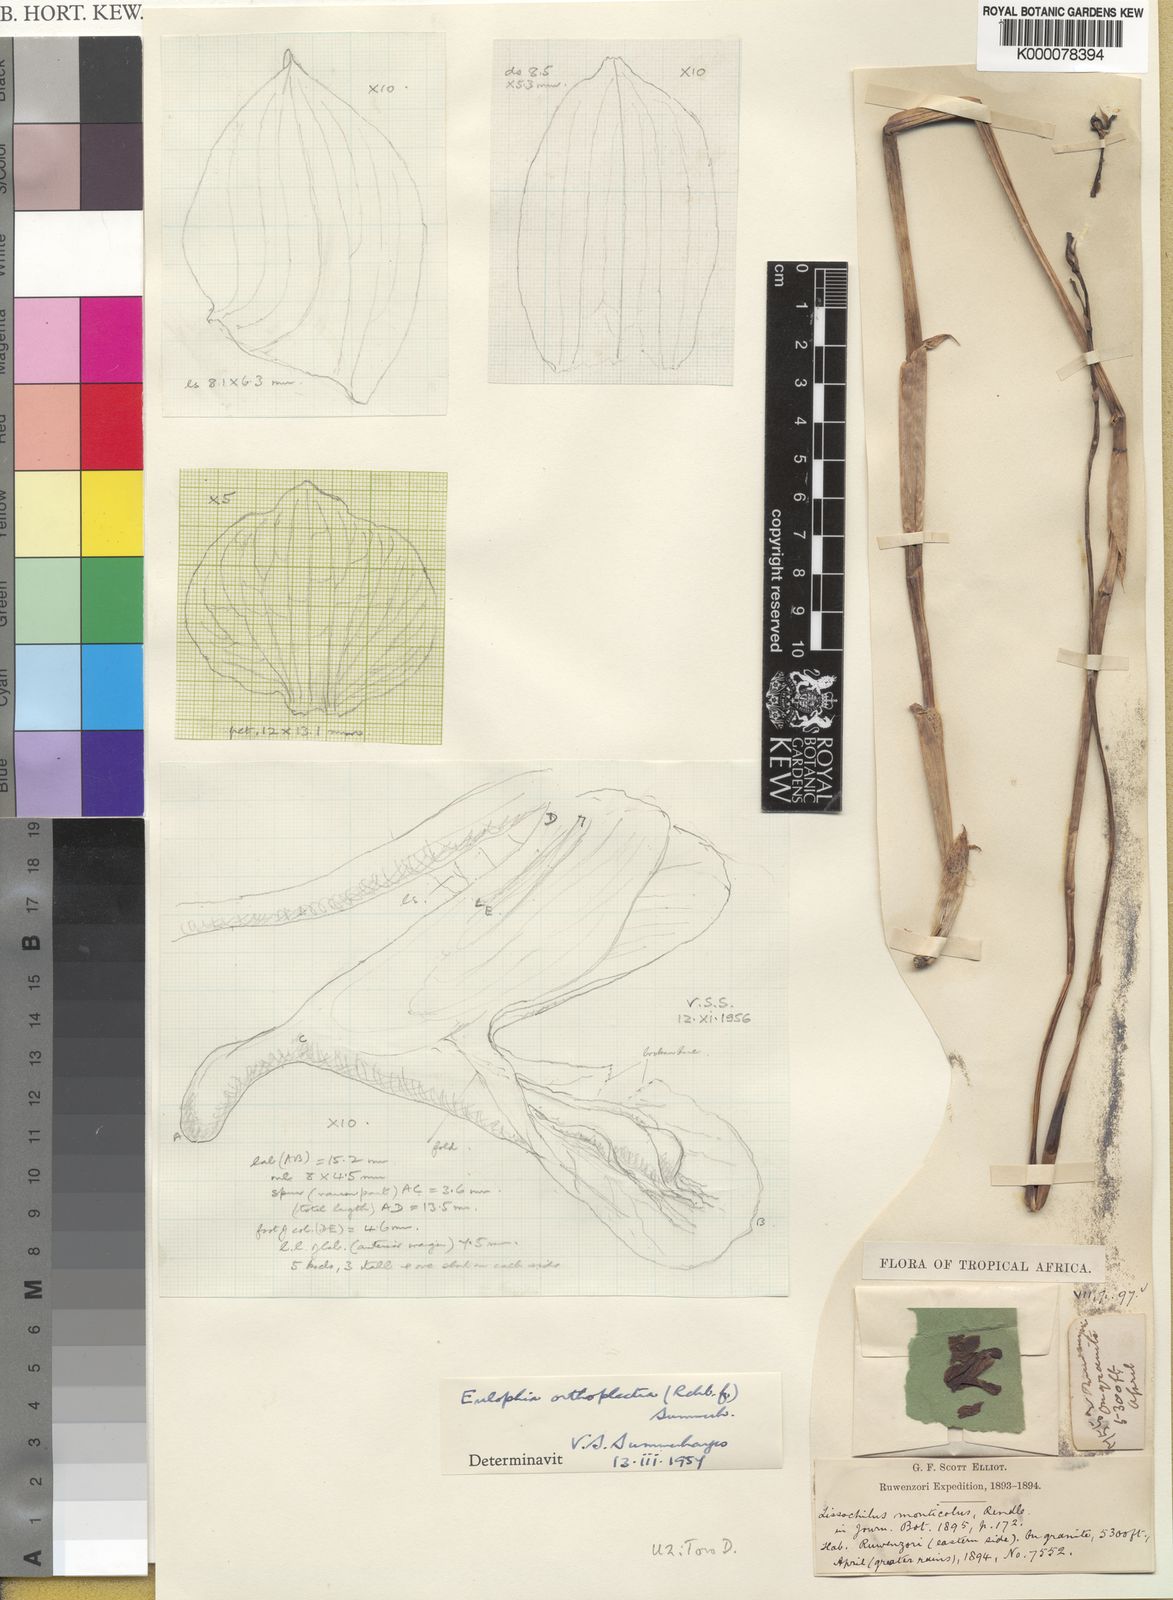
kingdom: Plantae
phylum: Tracheophyta
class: Liliopsida
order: Asparagales
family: Orchidaceae
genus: Eulophia
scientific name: Eulophia orthoplectra
